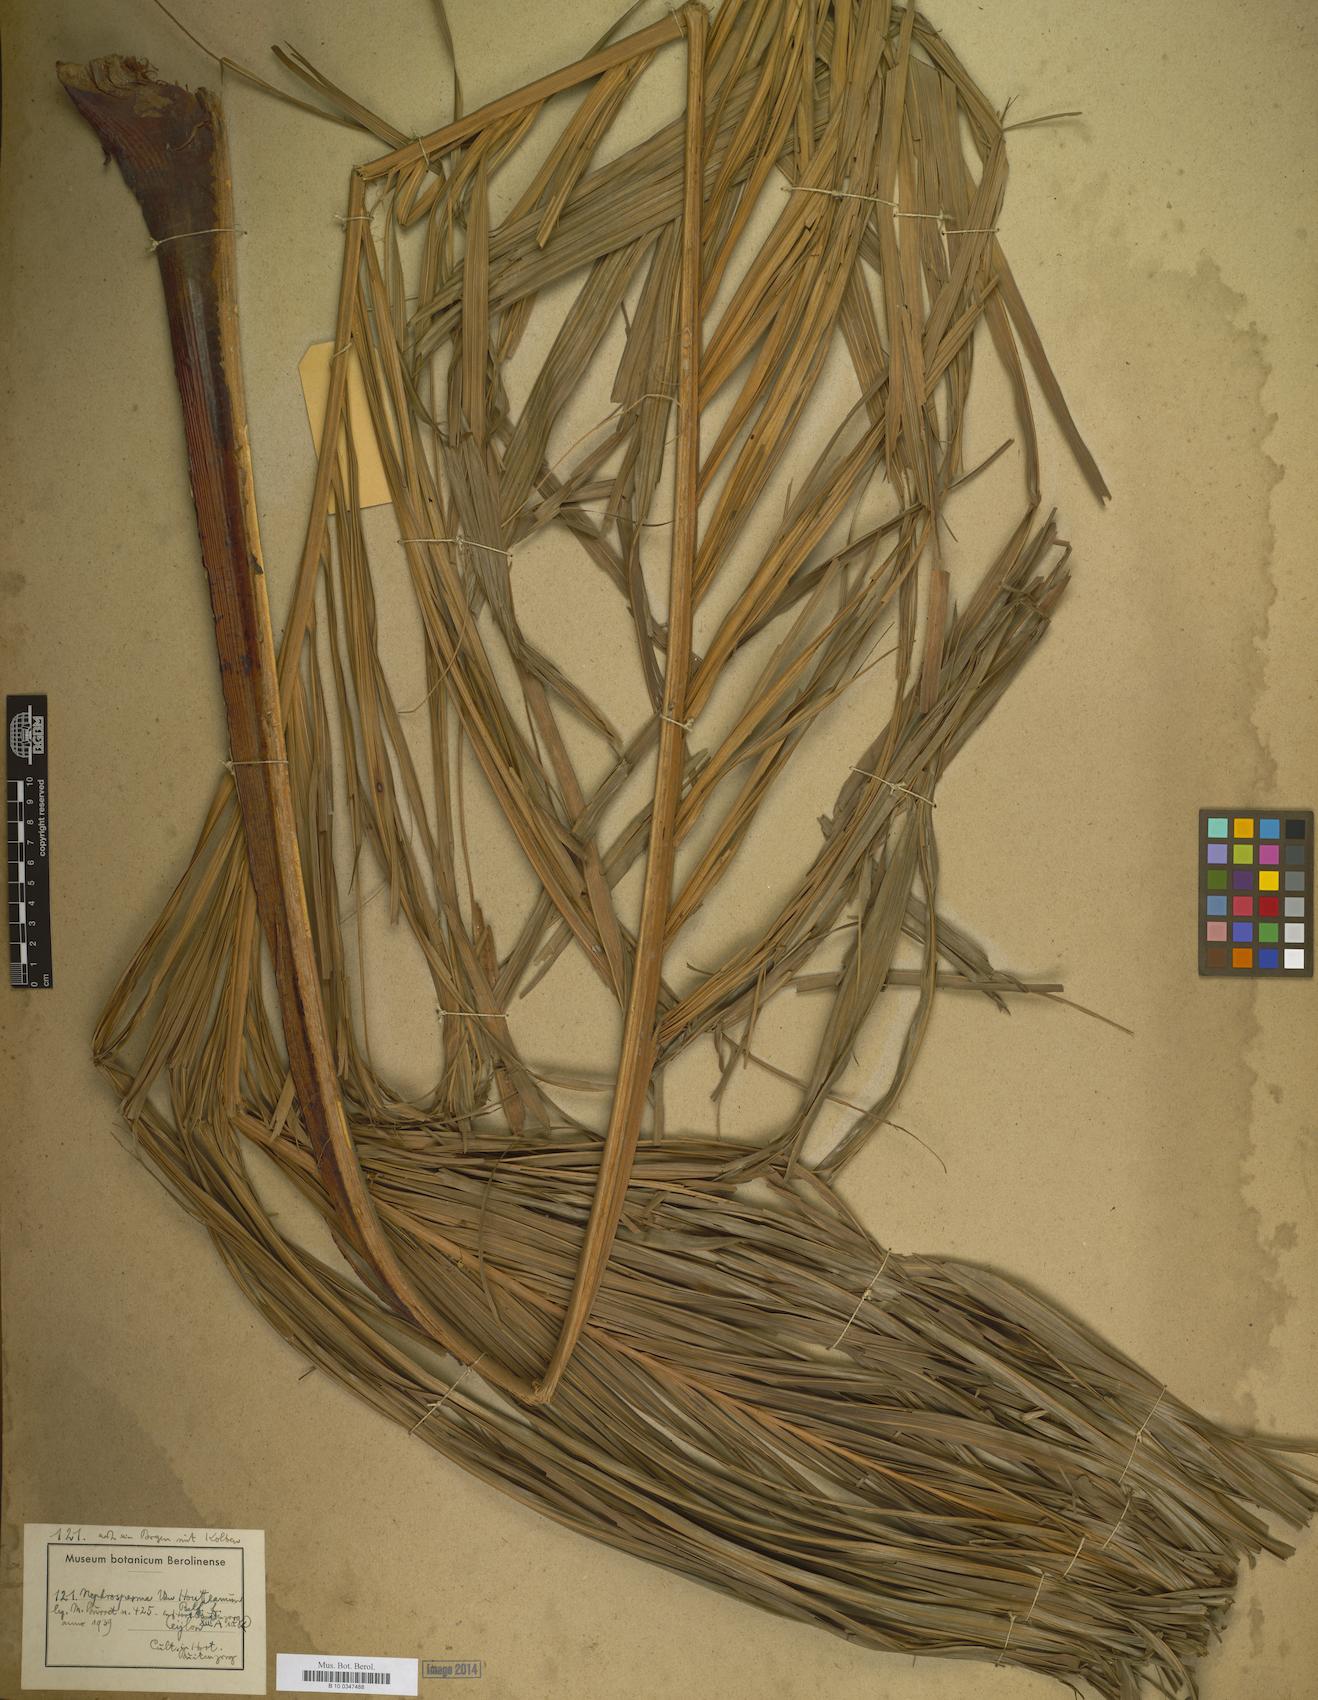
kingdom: Plantae
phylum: Tracheophyta
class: Liliopsida
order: Arecales
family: Arecaceae
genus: Nephrosperma
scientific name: Nephrosperma
